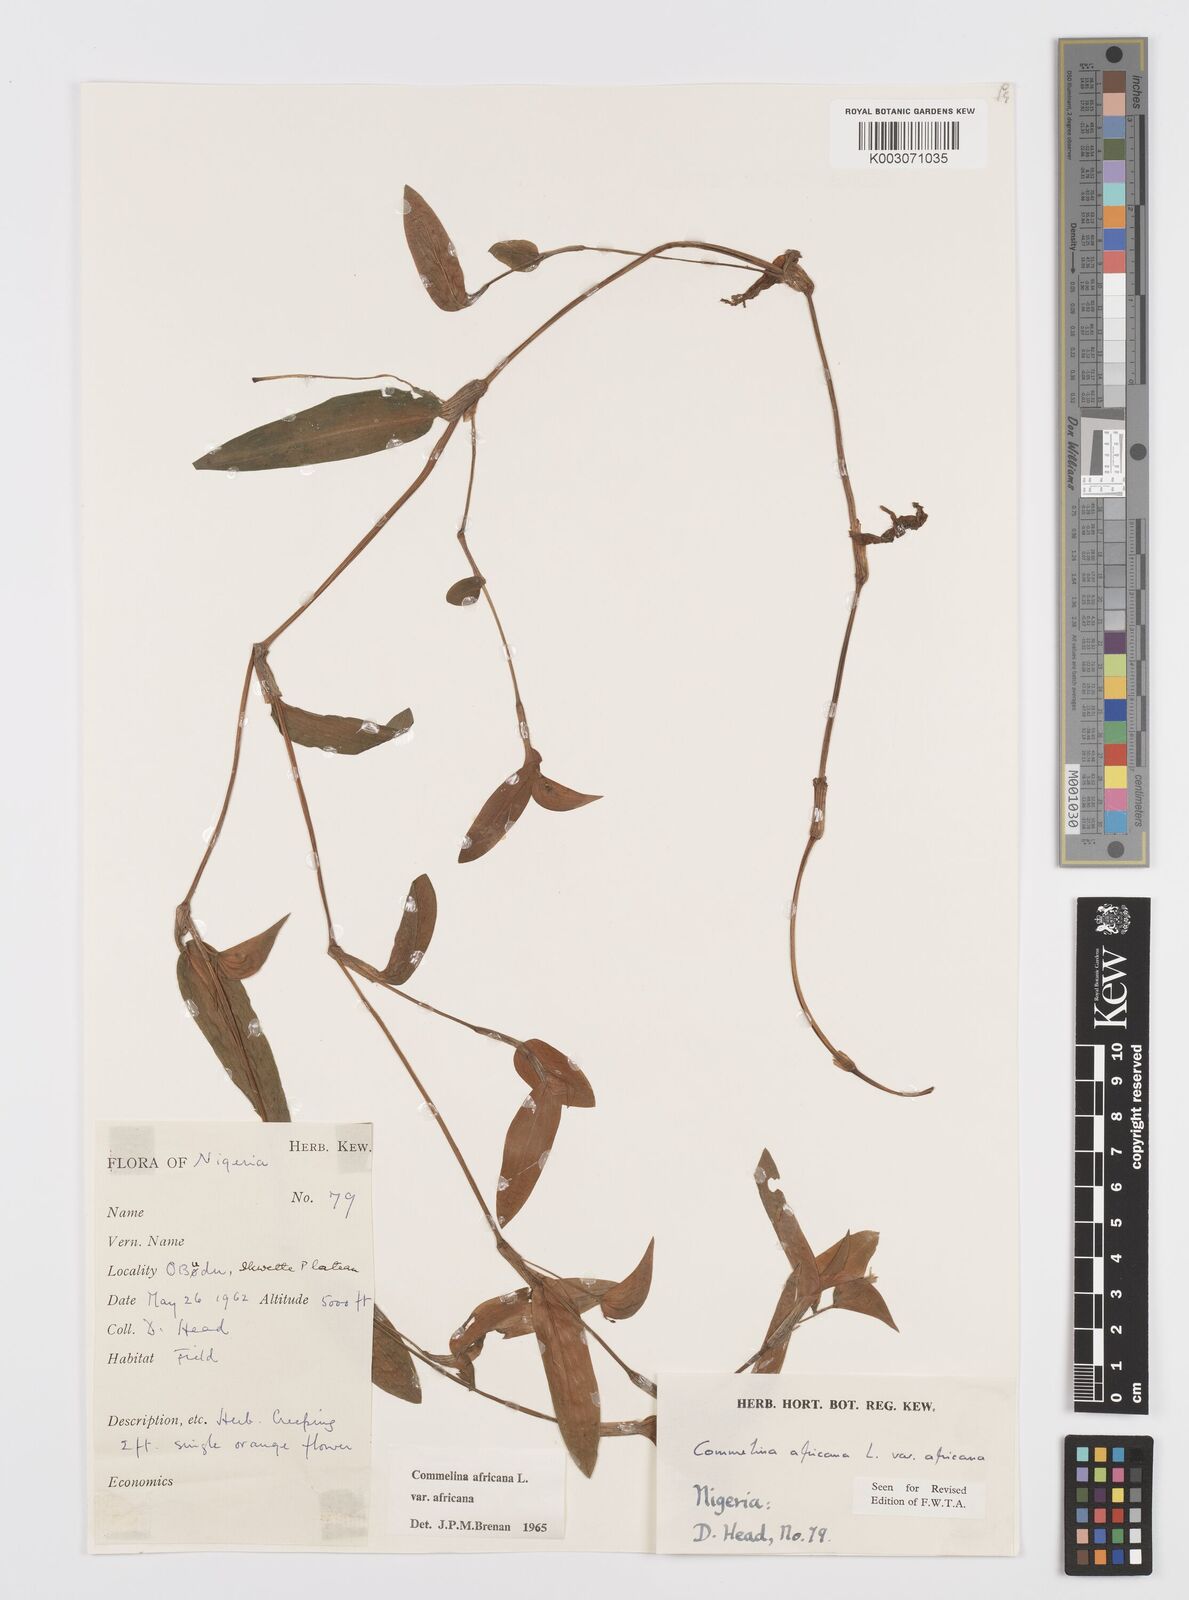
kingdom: Plantae
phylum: Tracheophyta
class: Liliopsida
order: Commelinales
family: Commelinaceae
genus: Commelina
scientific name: Commelina africana
